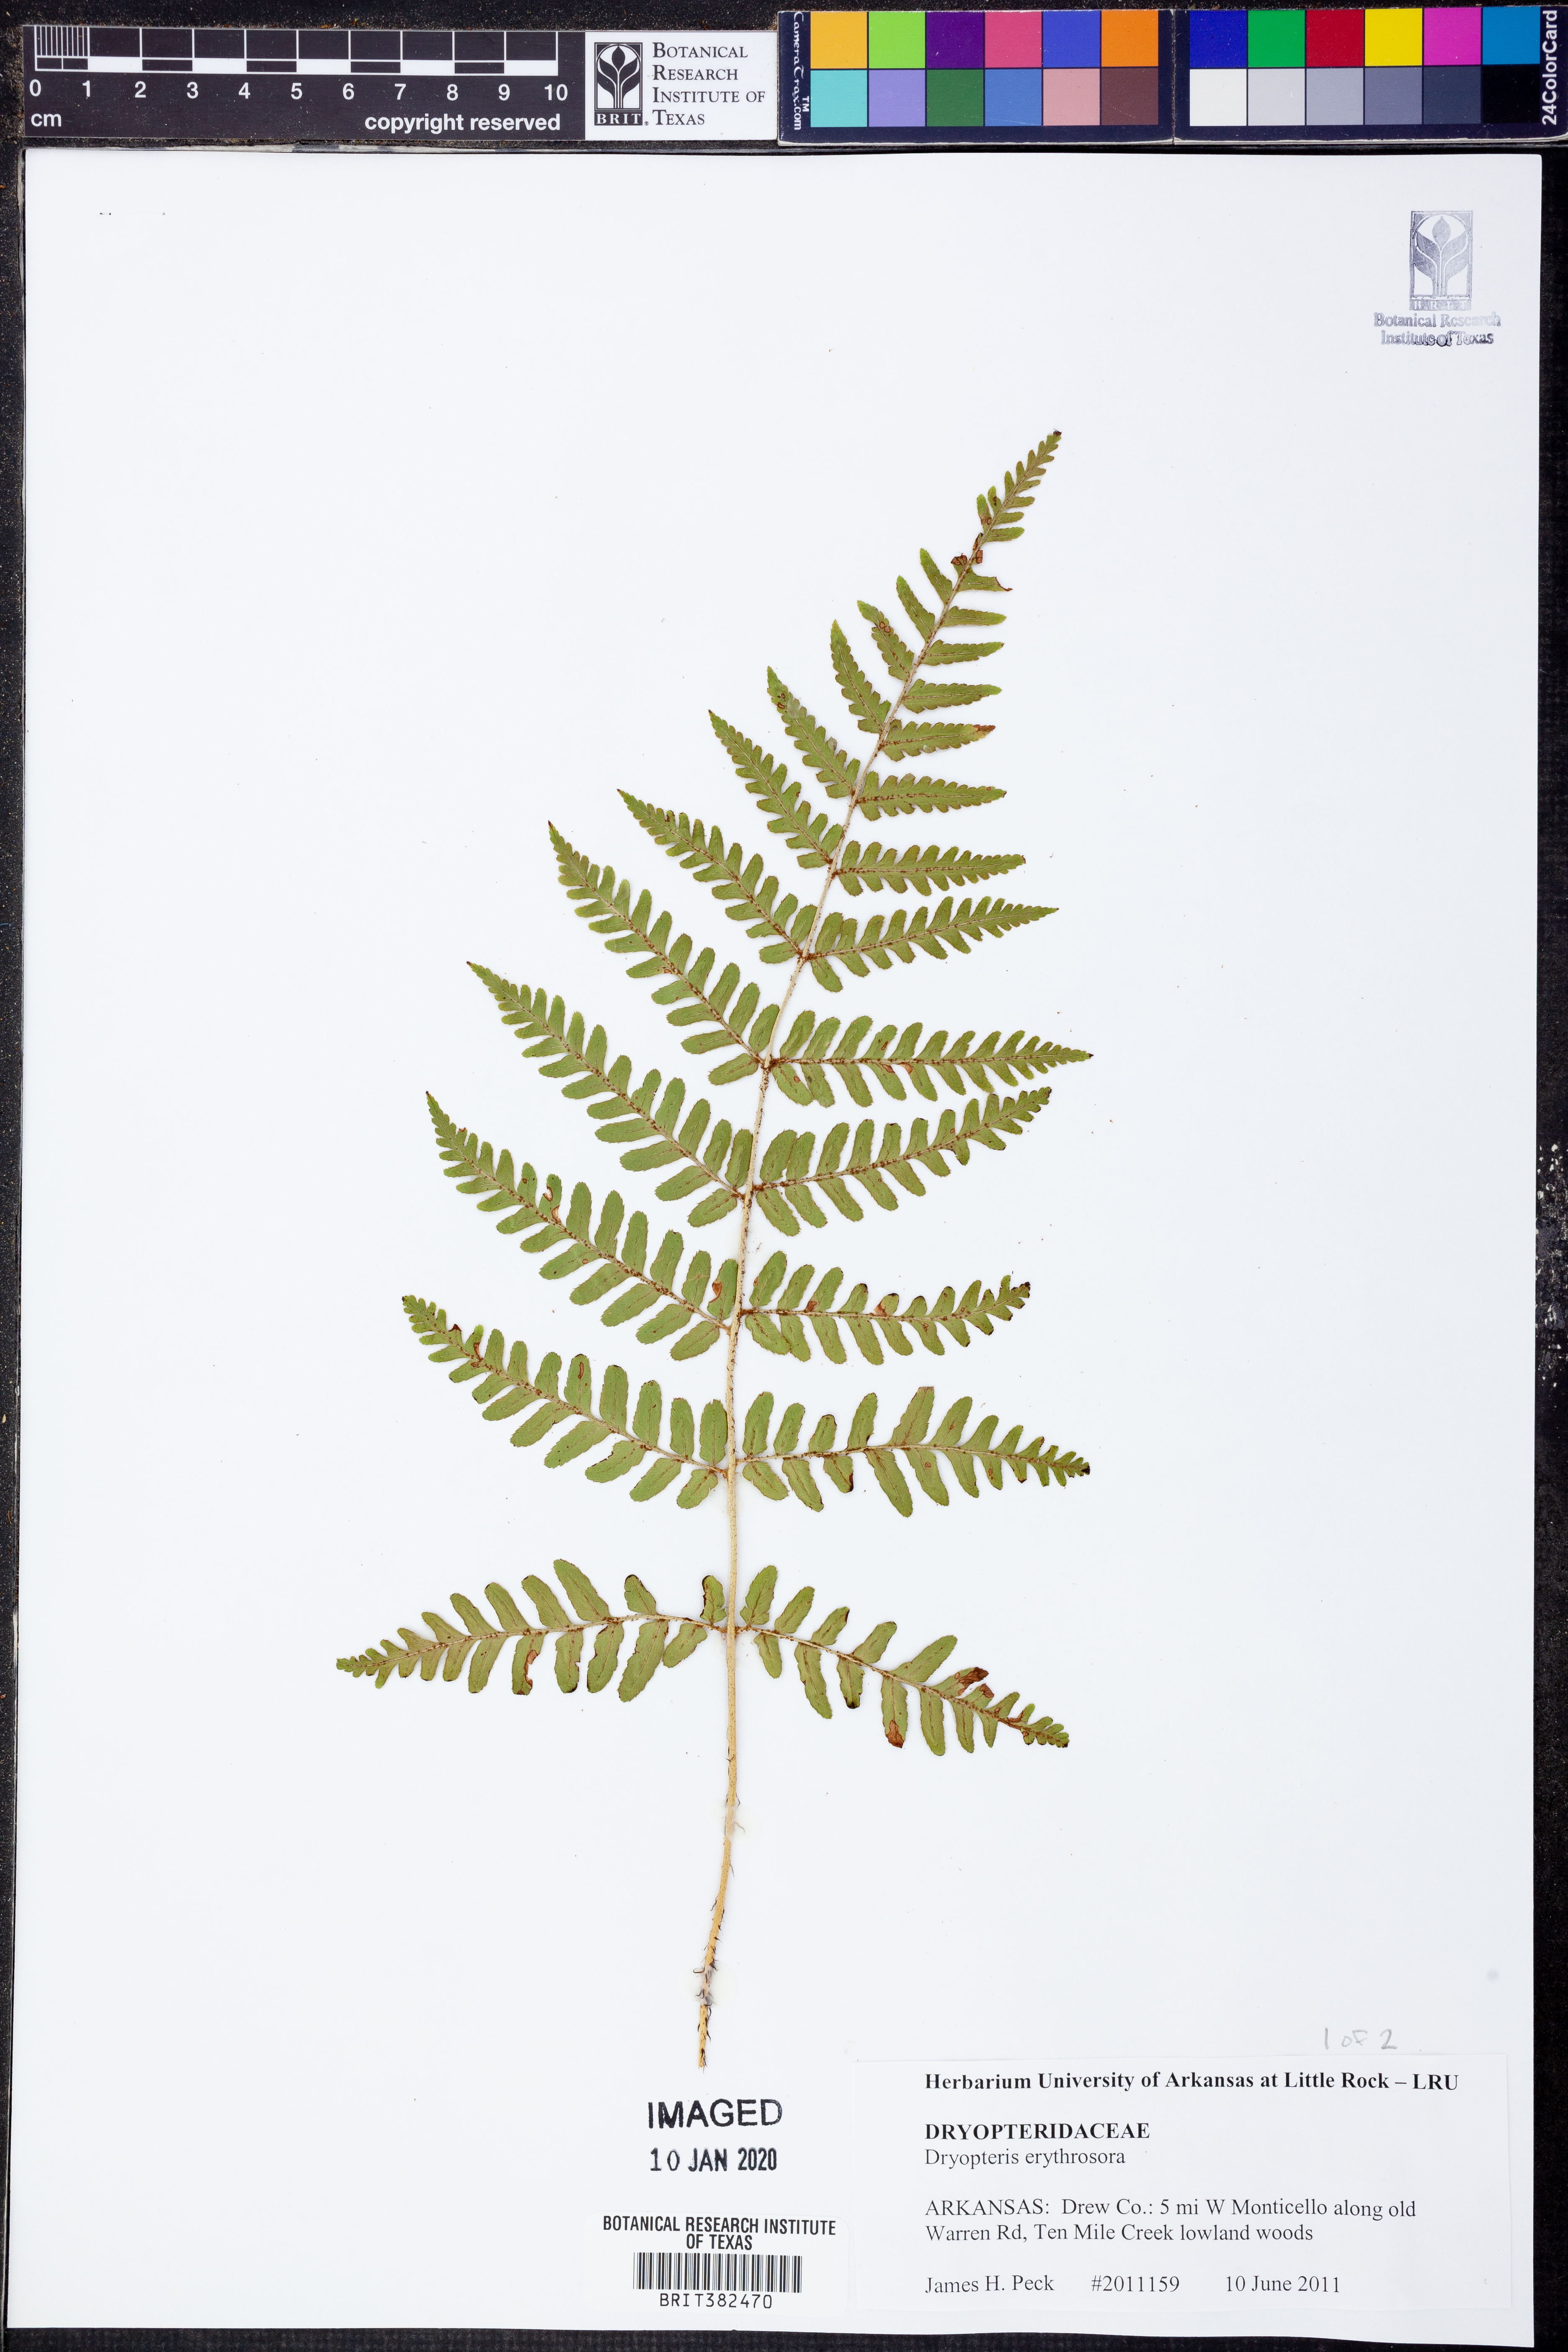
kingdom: Plantae
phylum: Tracheophyta
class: Polypodiopsida
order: Polypodiales
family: Dryopteridaceae
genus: Dryopteris
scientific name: Dryopteris erythrosora
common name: Autumn fern
